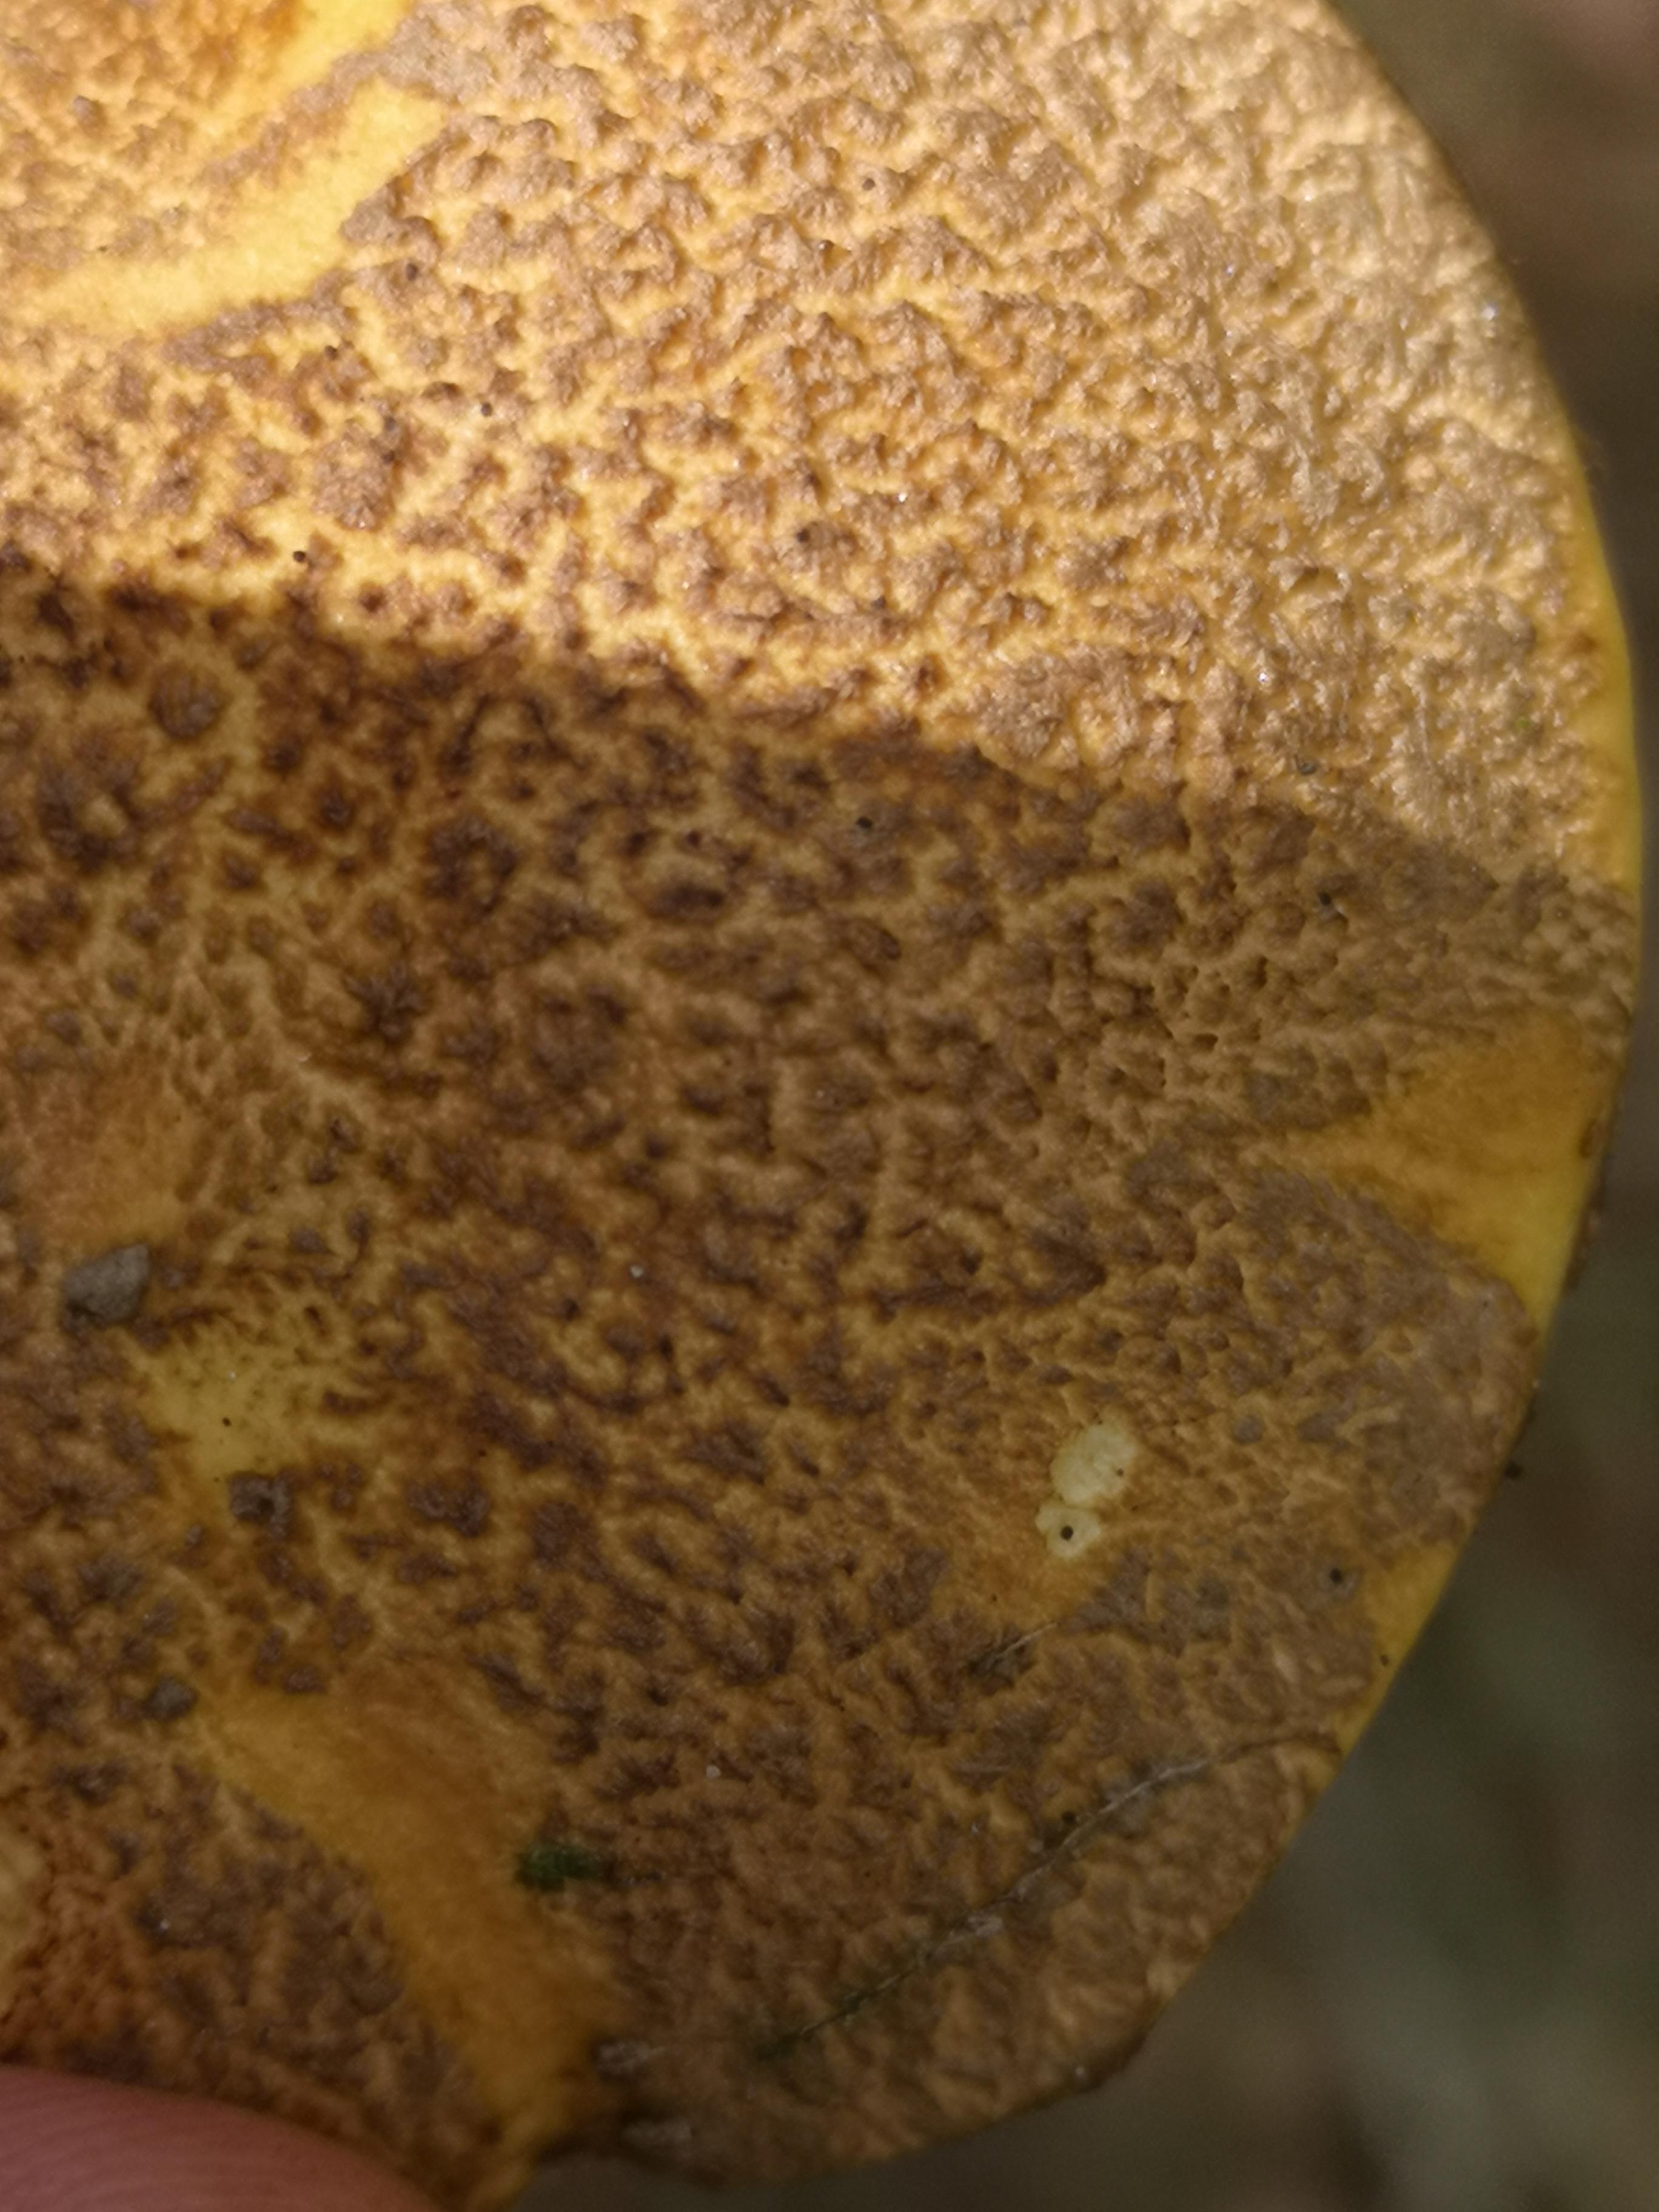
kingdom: Fungi
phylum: Basidiomycota
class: Agaricomycetes
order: Boletales
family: Suillaceae
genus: Suillus
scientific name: Suillus variegatus
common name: broget slimrørhat
